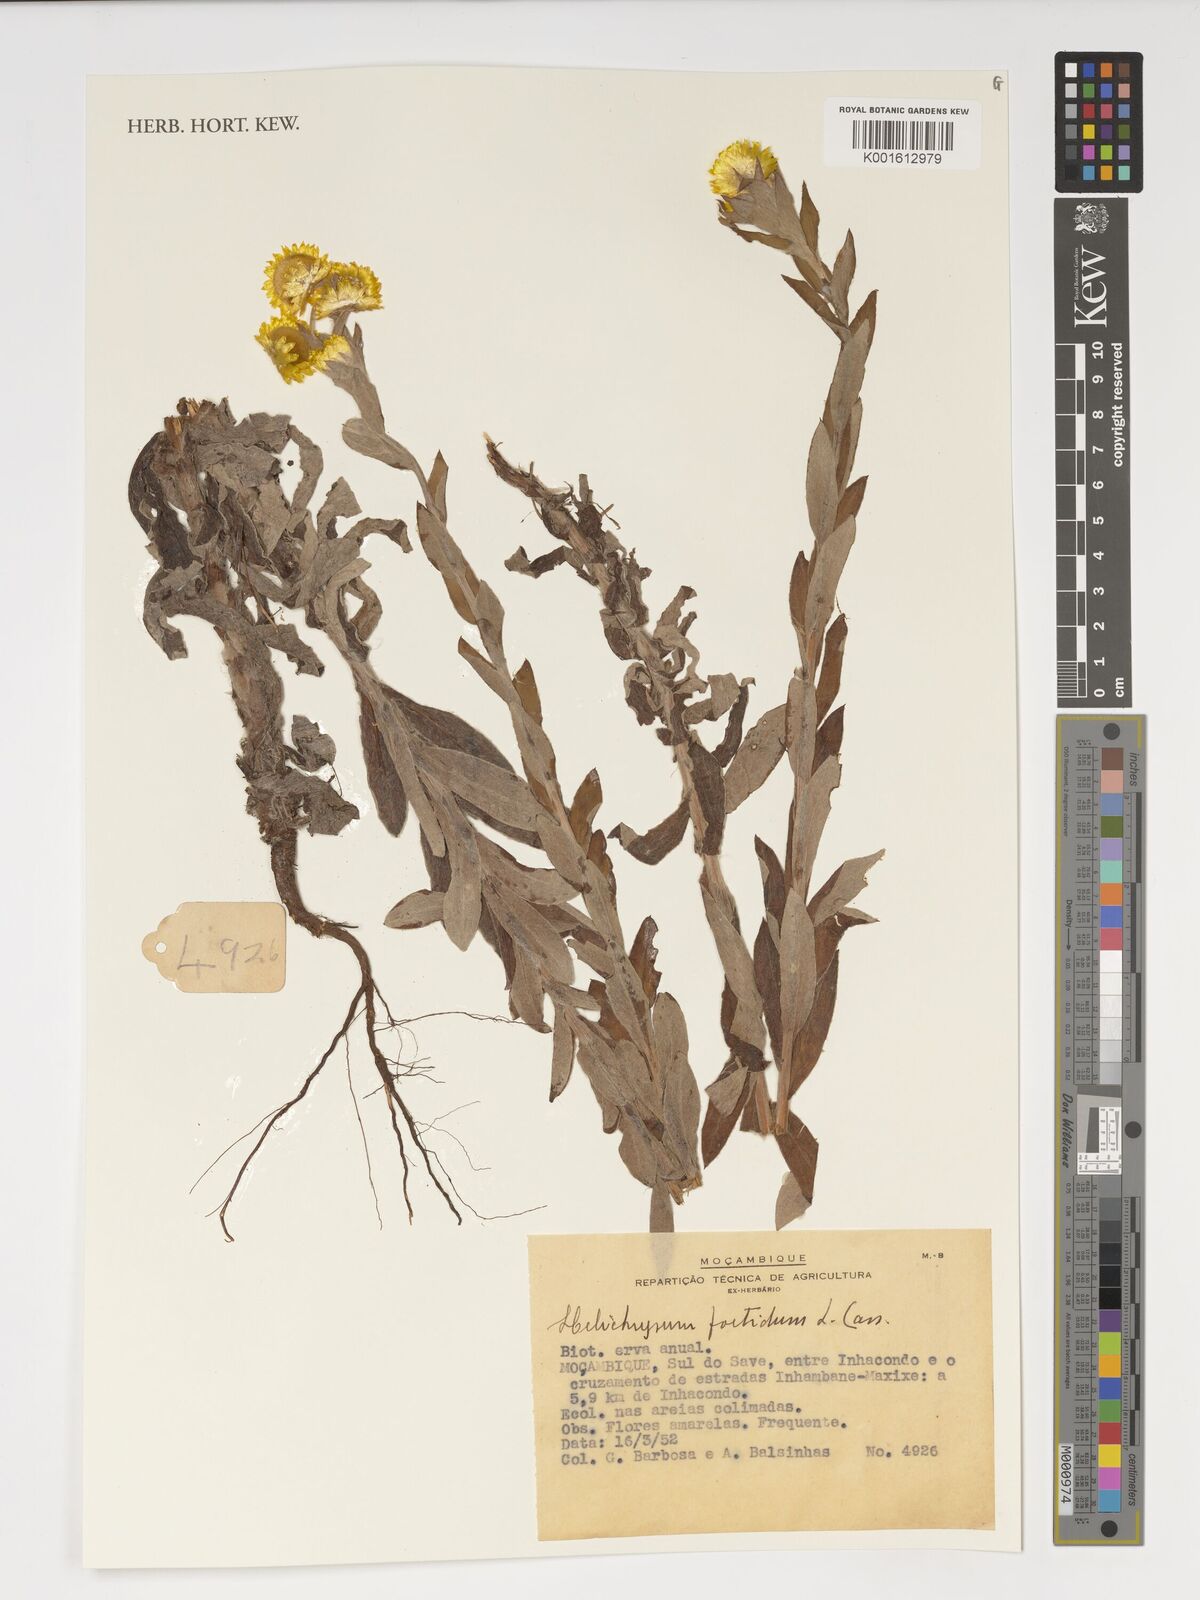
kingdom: Plantae
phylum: Tracheophyta
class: Magnoliopsida
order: Asterales
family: Asteraceae
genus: Helichrysum
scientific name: Helichrysum foetidum
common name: Stinking everlasting
